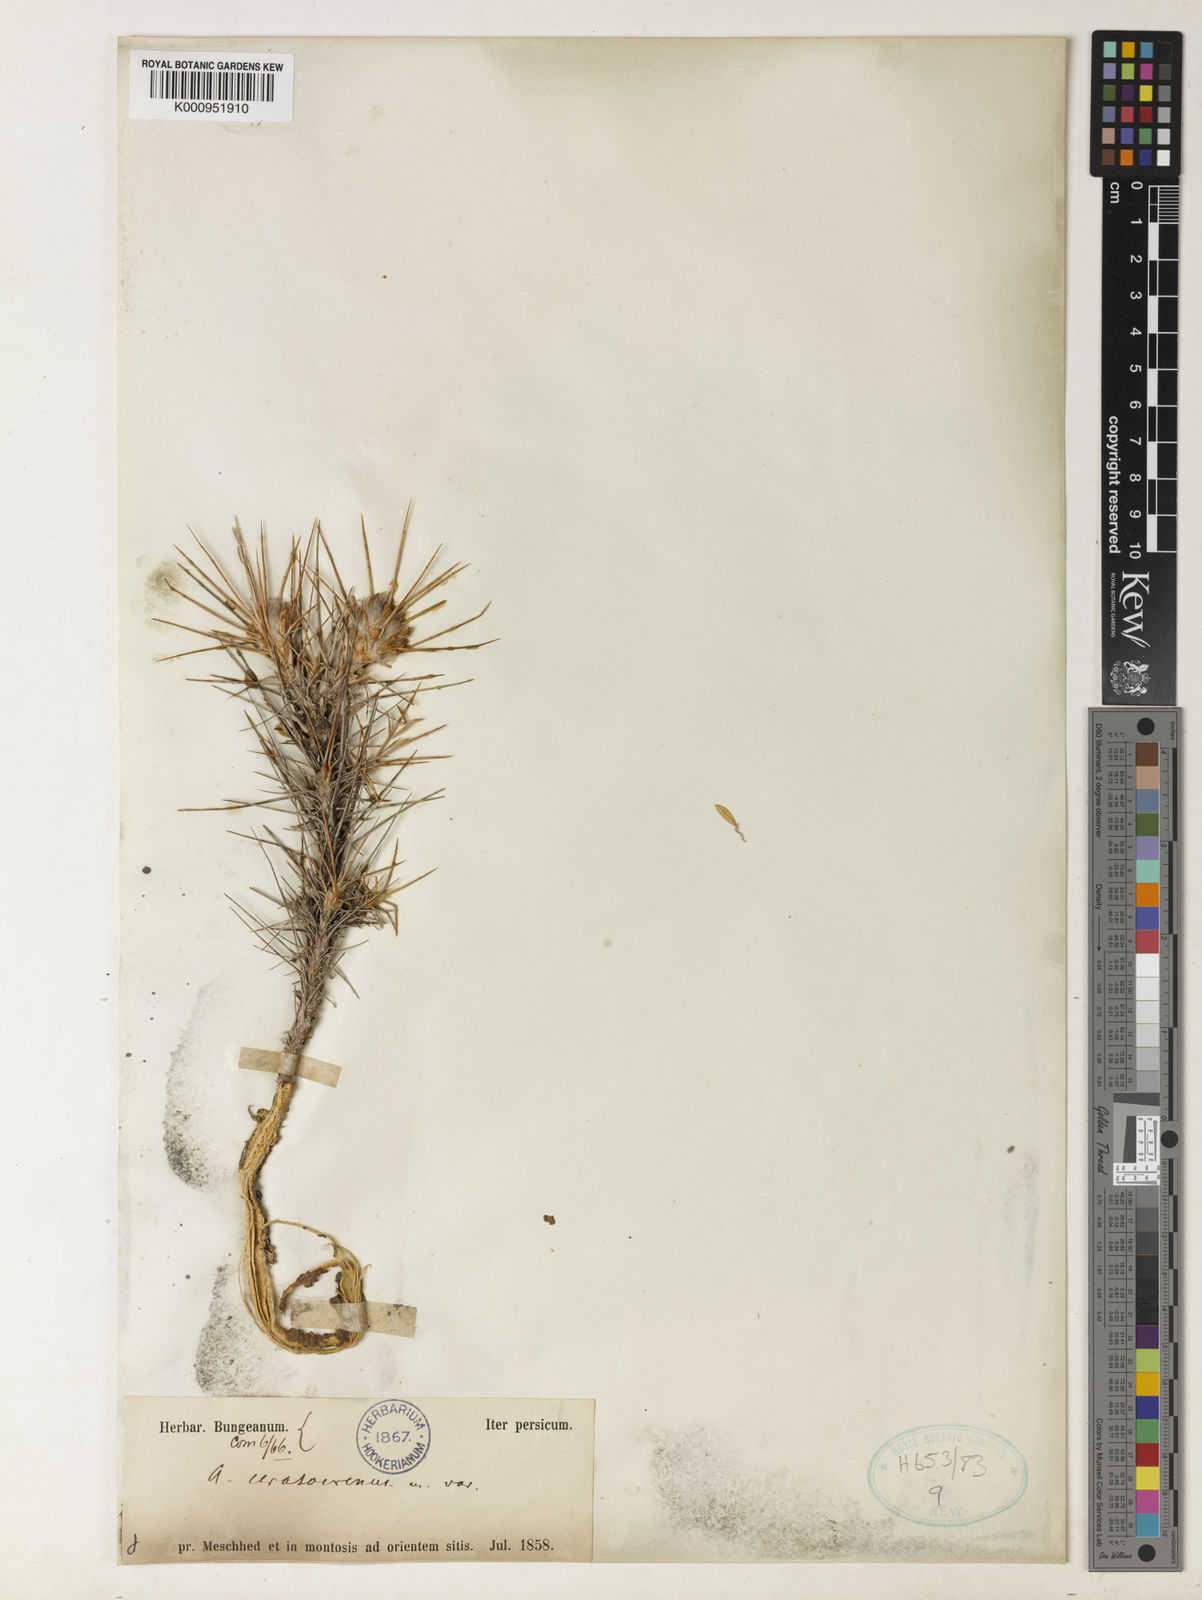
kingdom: Plantae
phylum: Tracheophyta
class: Magnoliopsida
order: Fabales
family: Fabaceae
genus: Astragalus
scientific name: Astragalus cerasocrenus
